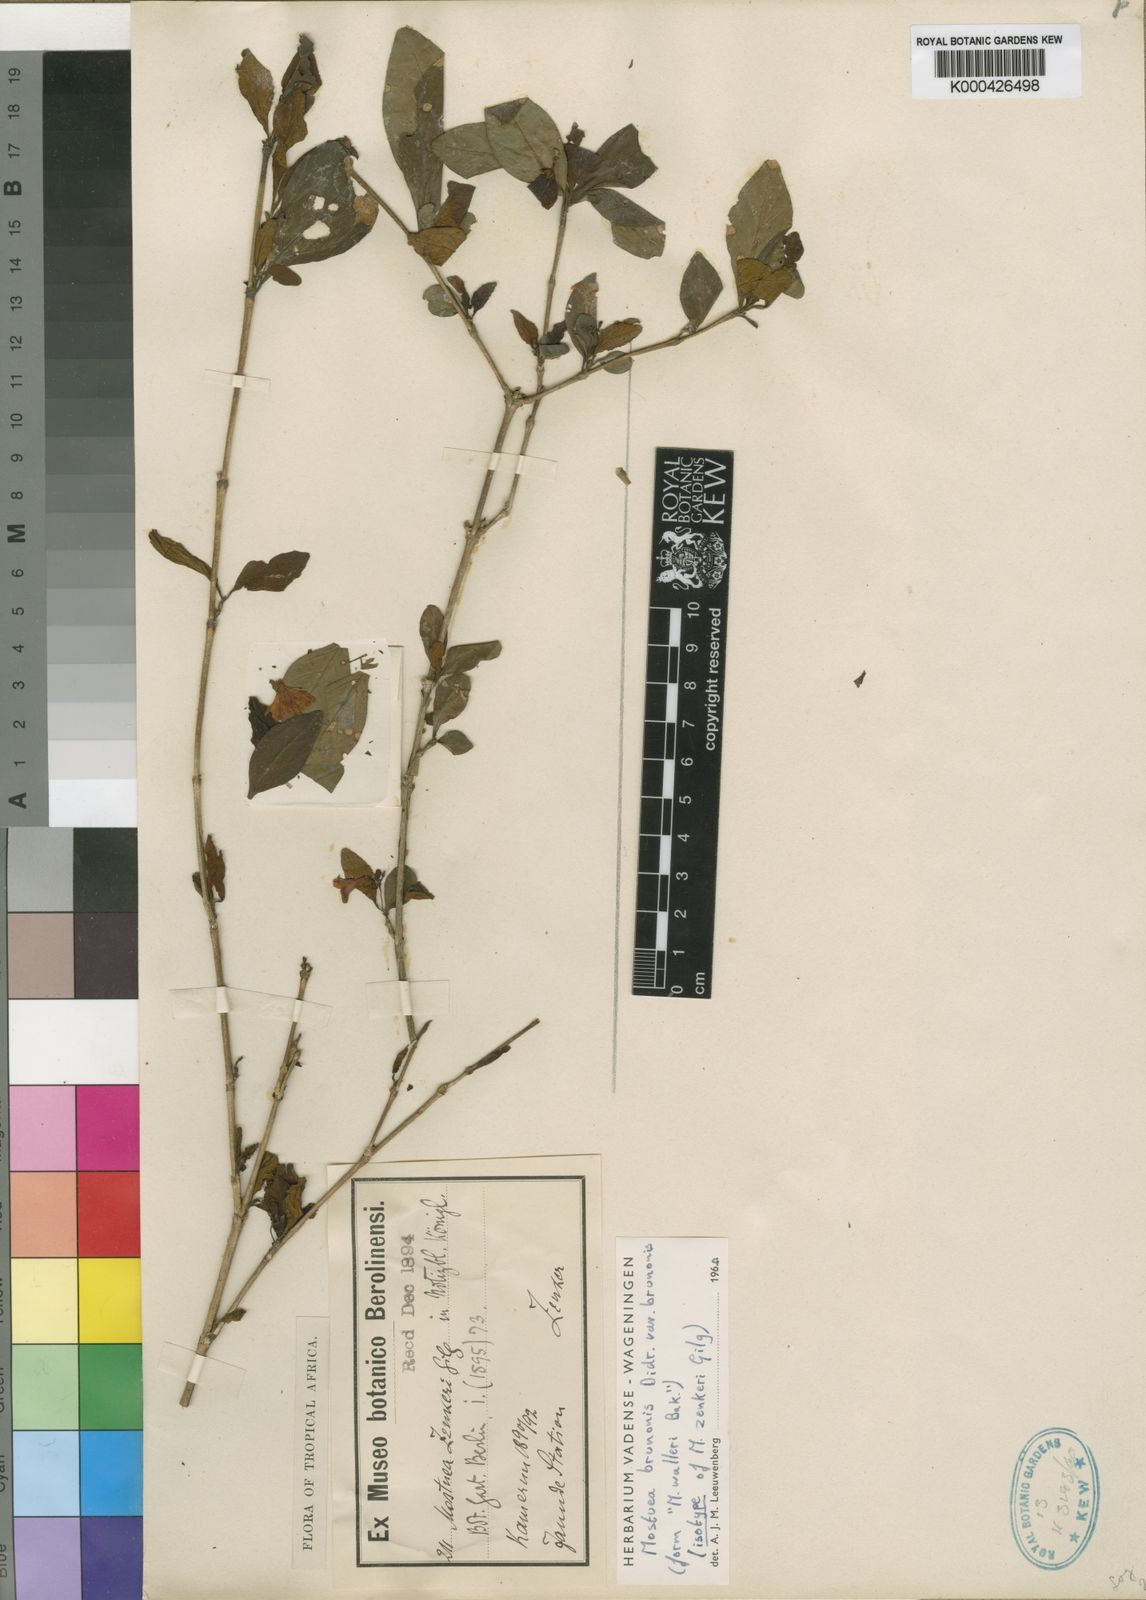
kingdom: Plantae
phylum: Tracheophyta
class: Magnoliopsida
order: Gentianales
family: Gelsemiaceae
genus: Mostuea
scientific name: Mostuea brunonis
